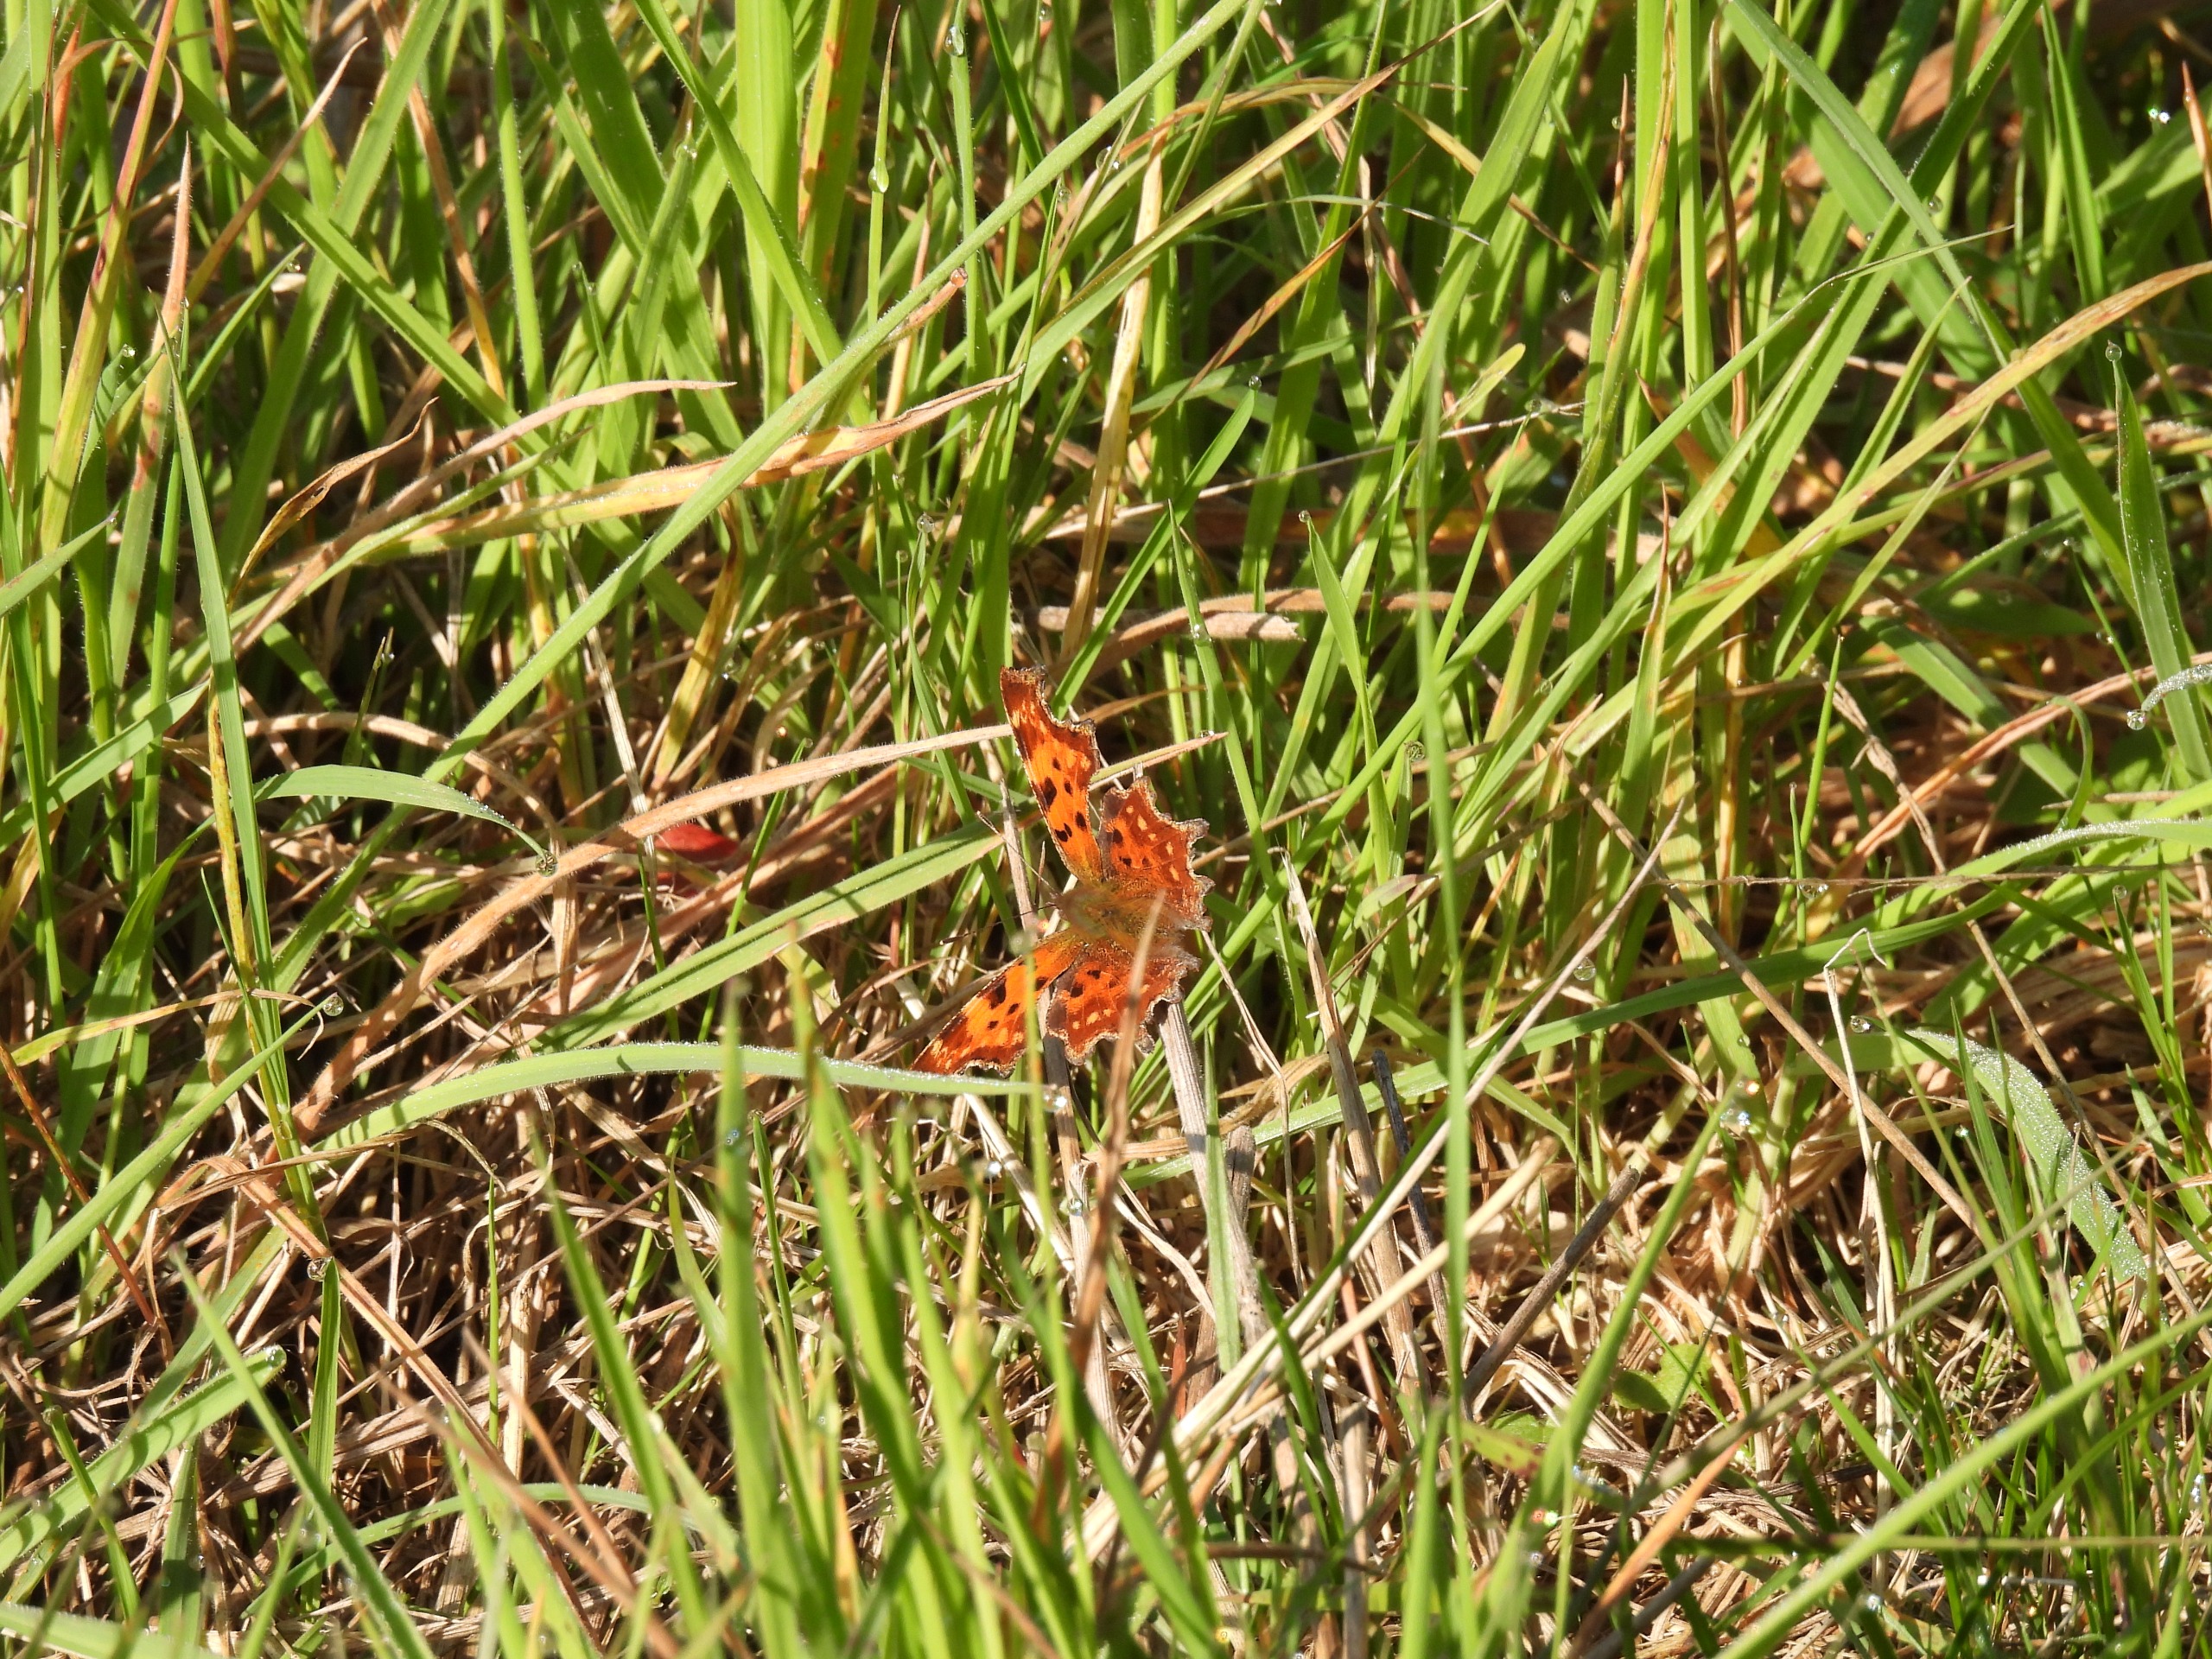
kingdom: Animalia
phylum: Arthropoda
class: Insecta
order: Lepidoptera
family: Nymphalidae
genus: Polygonia
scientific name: Polygonia c-album
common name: Det hvide C
